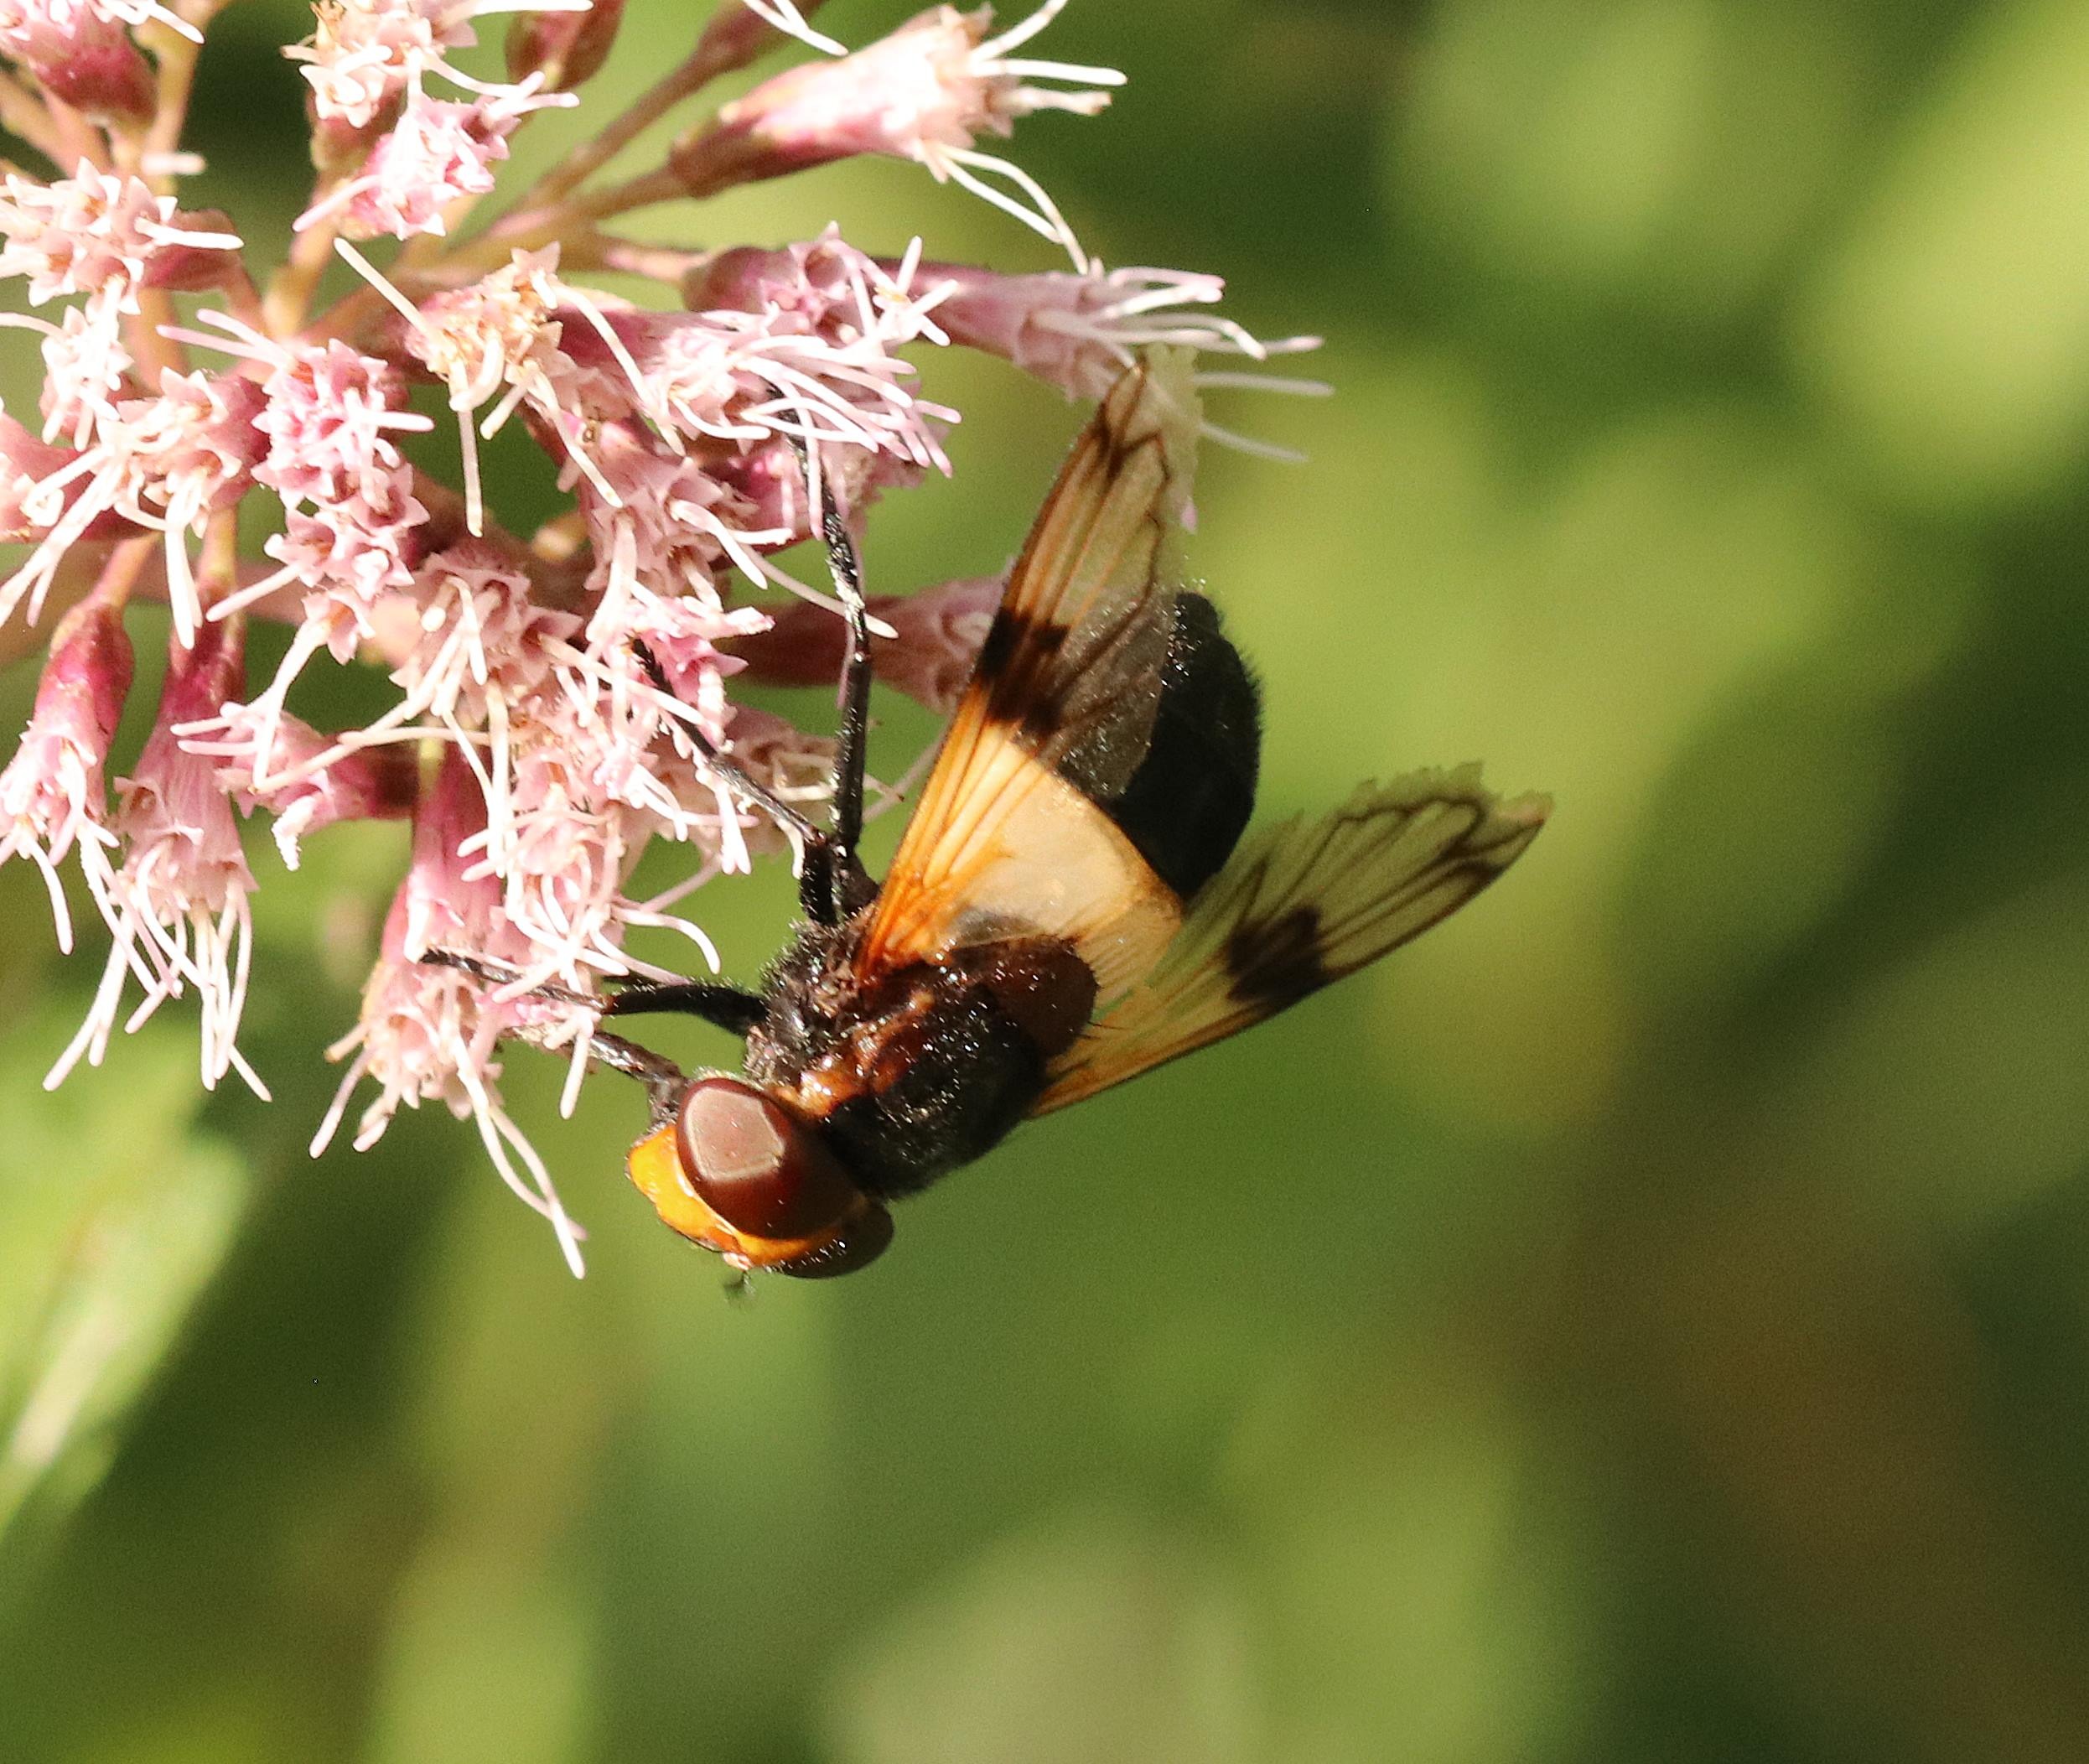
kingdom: Animalia
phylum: Arthropoda
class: Insecta
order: Diptera
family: Syrphidae
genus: Volucella
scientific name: Volucella pellucens
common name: Hvidbåndet humlesvirreflue
